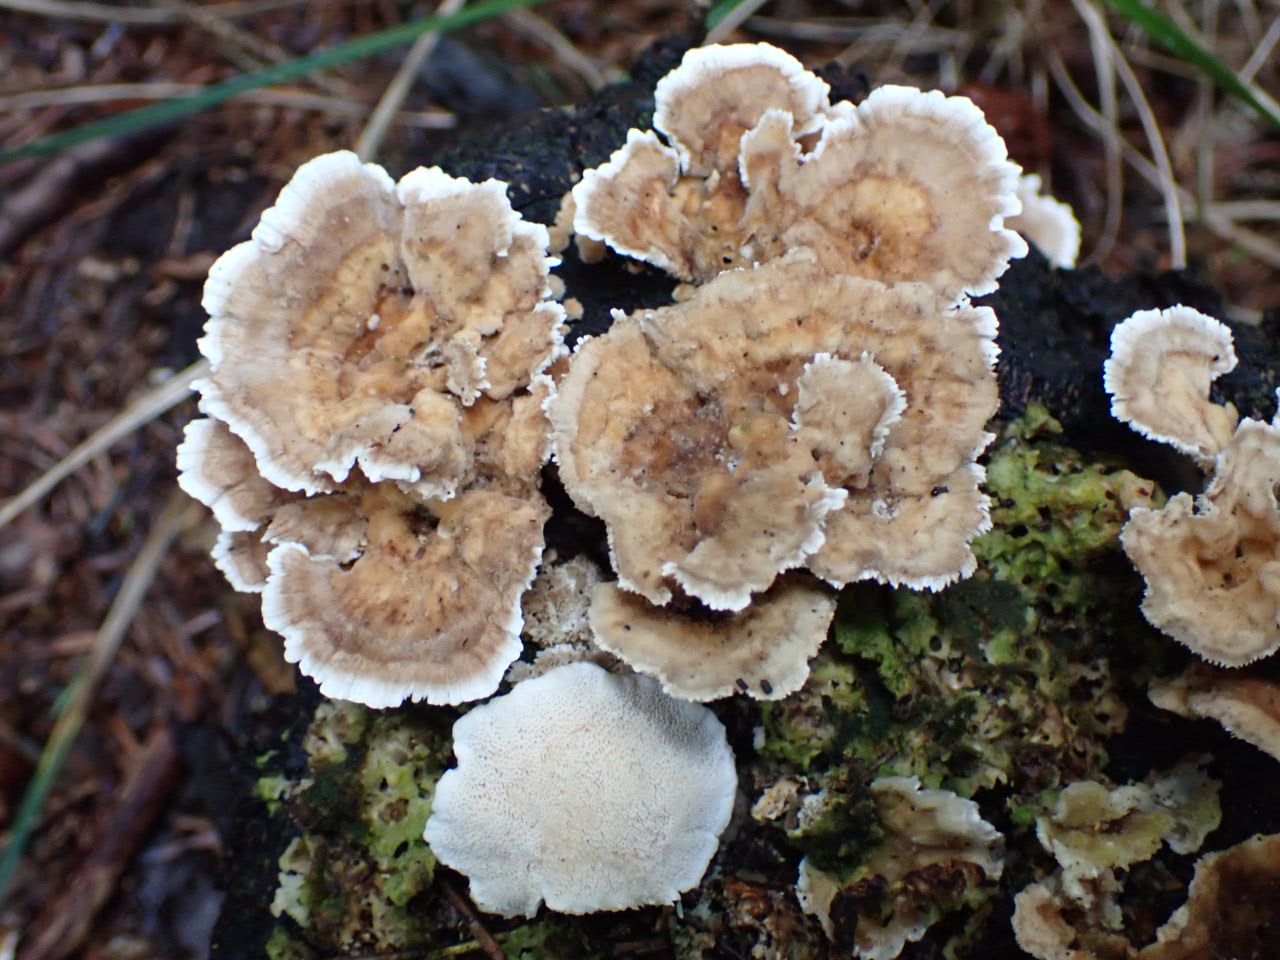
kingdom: Fungi
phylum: Basidiomycota
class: Agaricomycetes
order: Polyporales
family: Polyporaceae
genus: Trametes
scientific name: Trametes versicolor
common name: broget læderporesvamp
